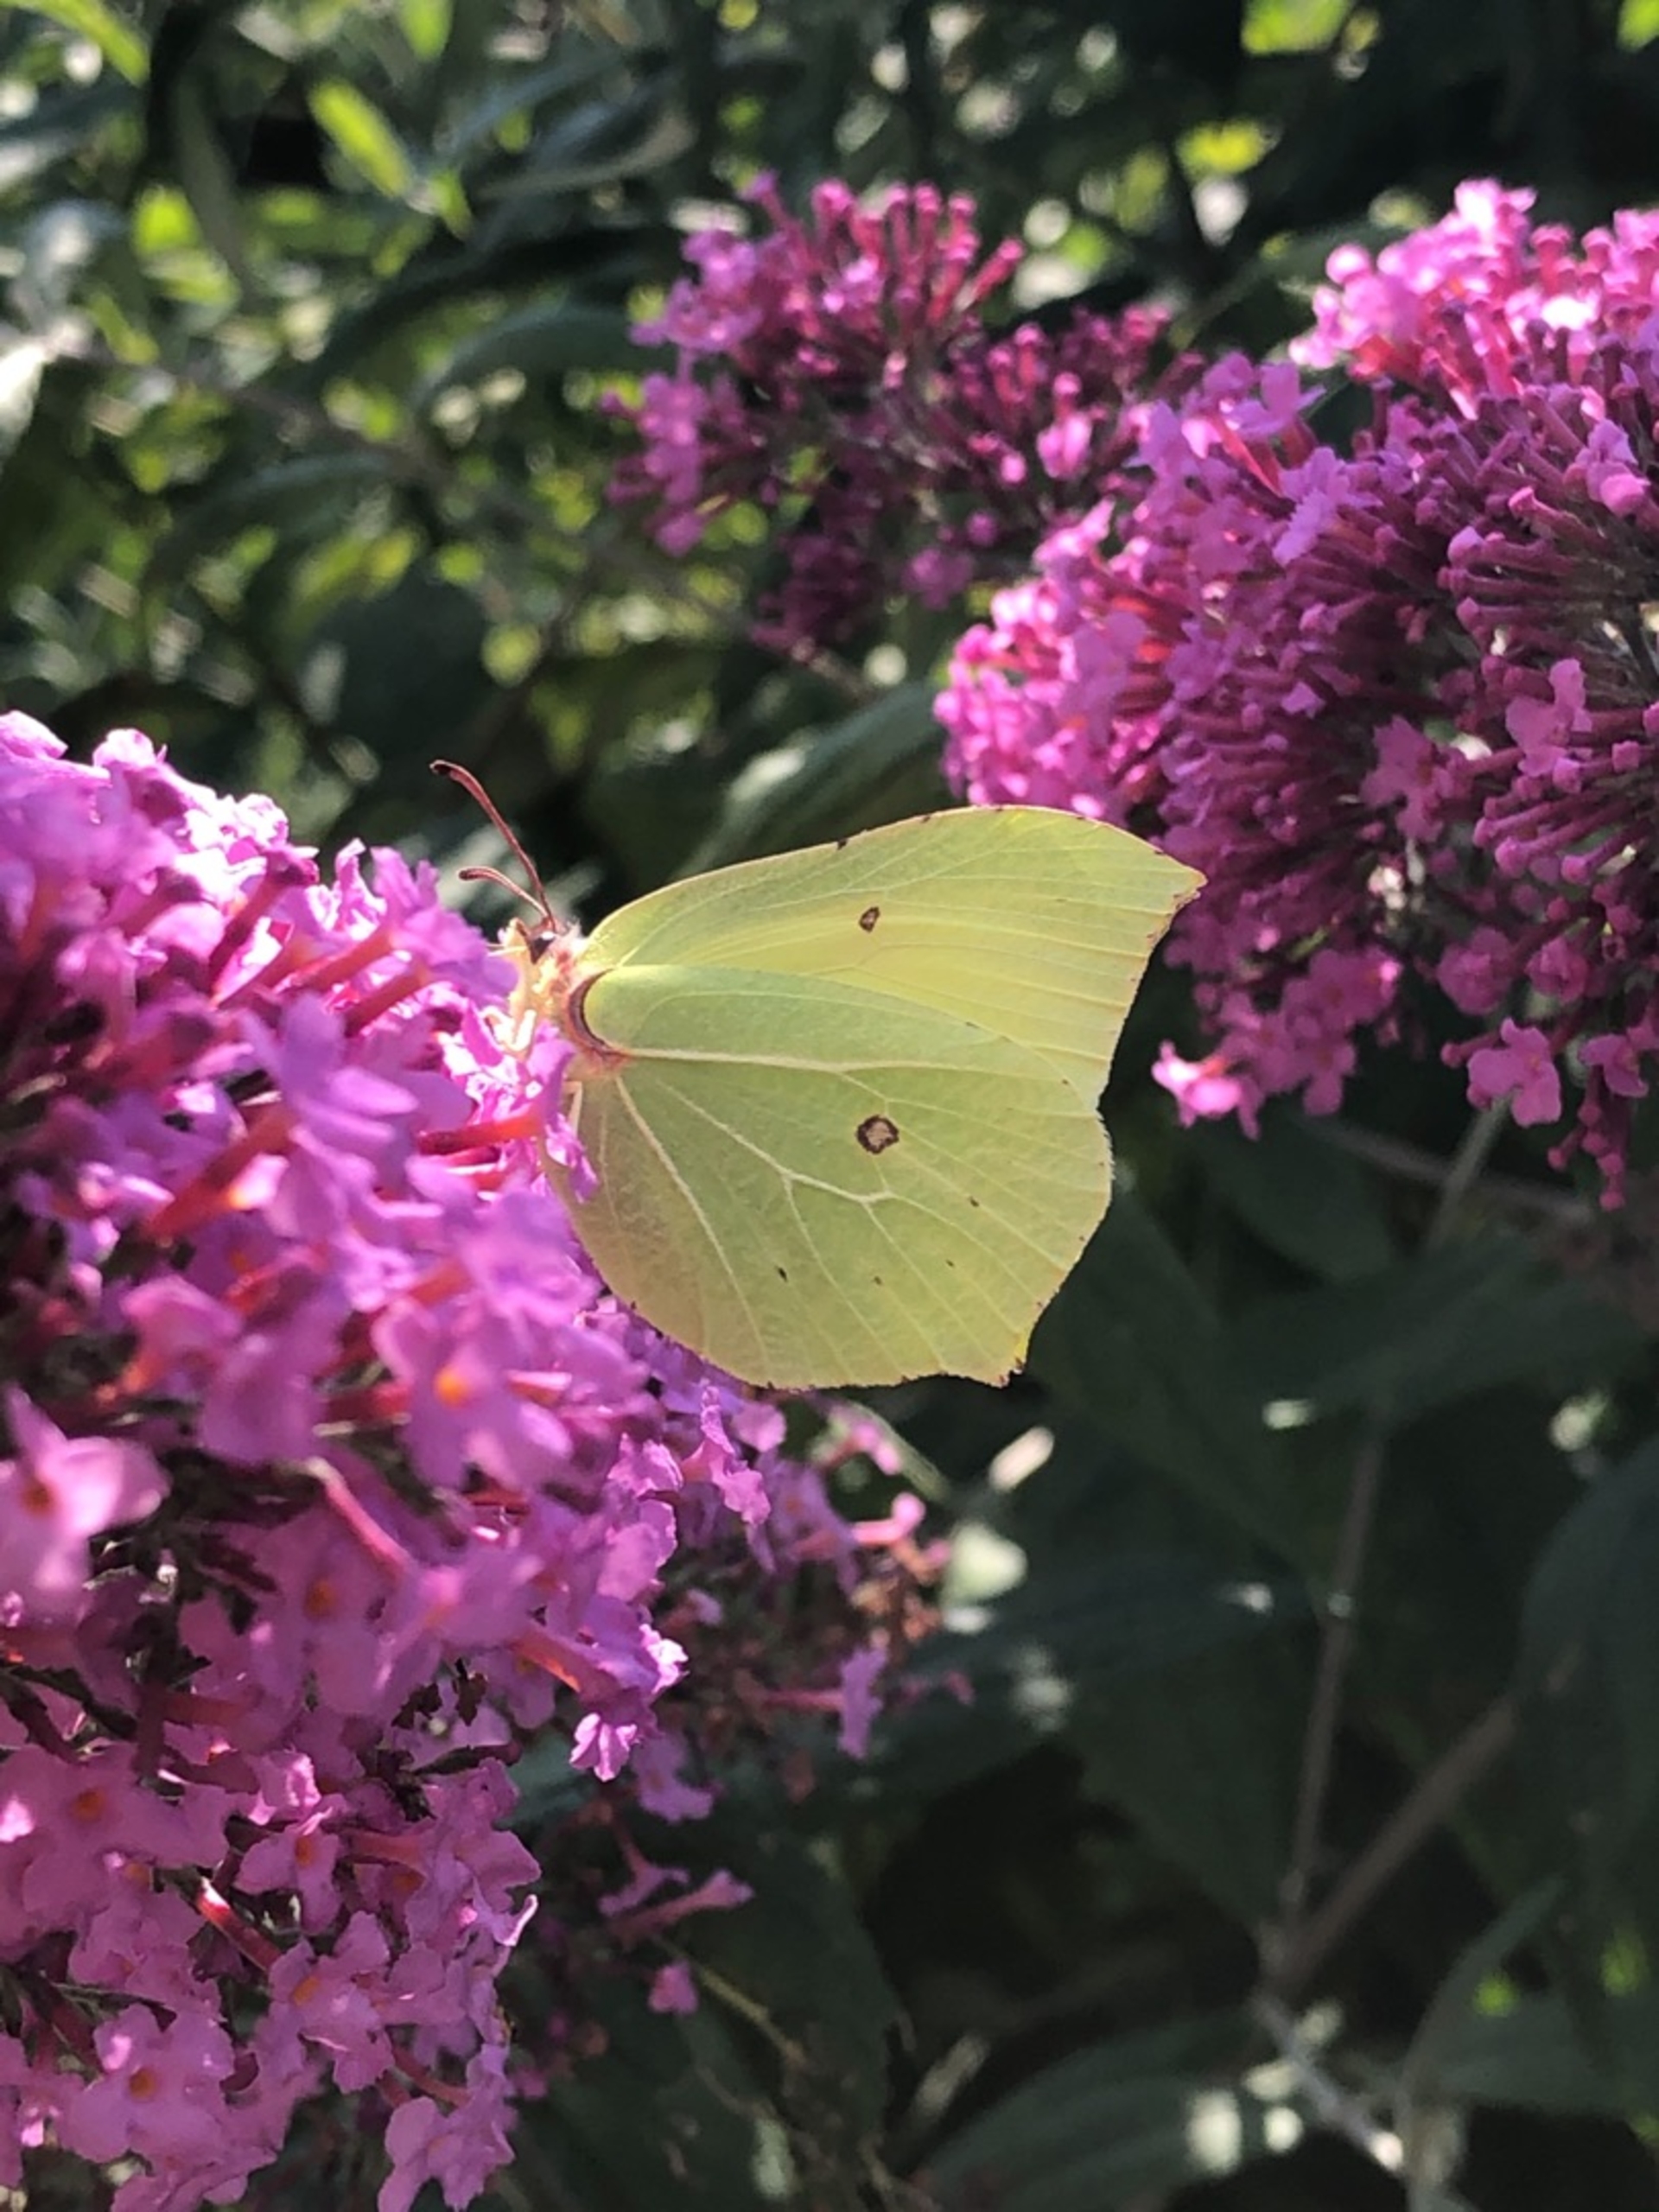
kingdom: Animalia
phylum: Arthropoda
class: Insecta
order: Lepidoptera
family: Pieridae
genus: Gonepteryx
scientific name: Gonepteryx rhamni
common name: Citronsommerfugl
